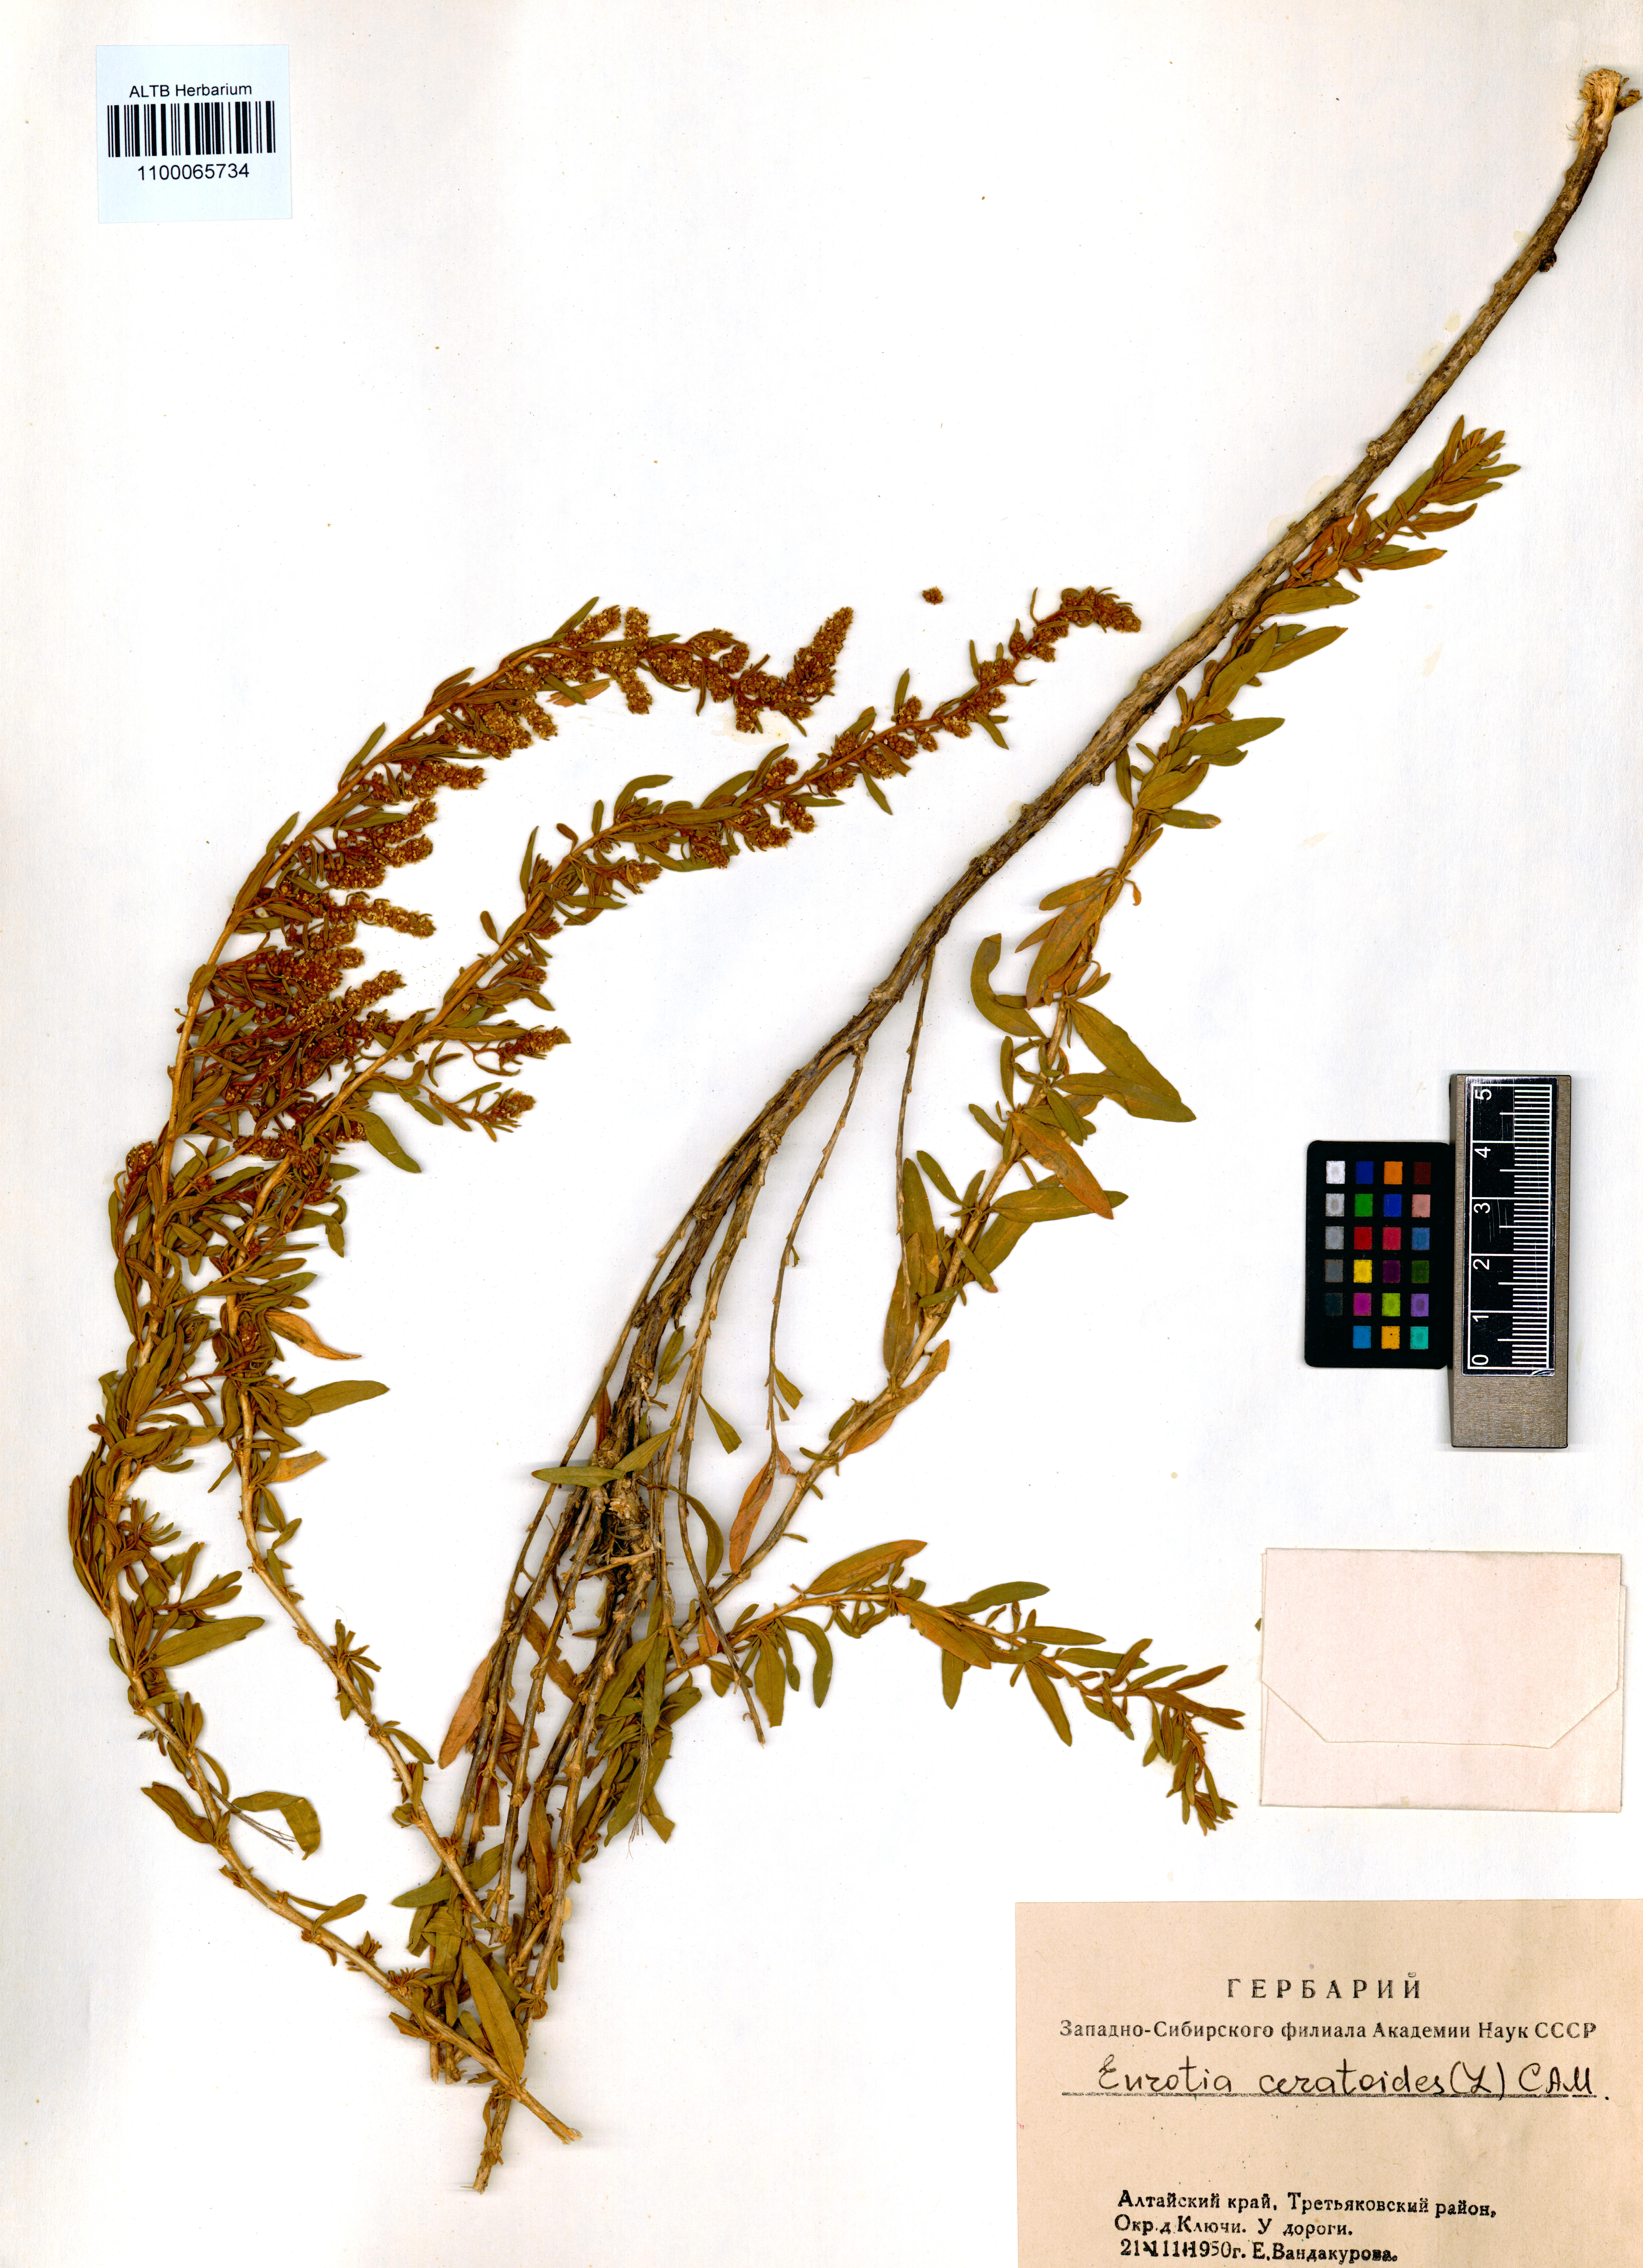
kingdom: Plantae
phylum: Tracheophyta
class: Magnoliopsida
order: Caryophyllales
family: Amaranthaceae
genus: Krascheninnikovia
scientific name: Krascheninnikovia ceratoides
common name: Pamirian winterfat
